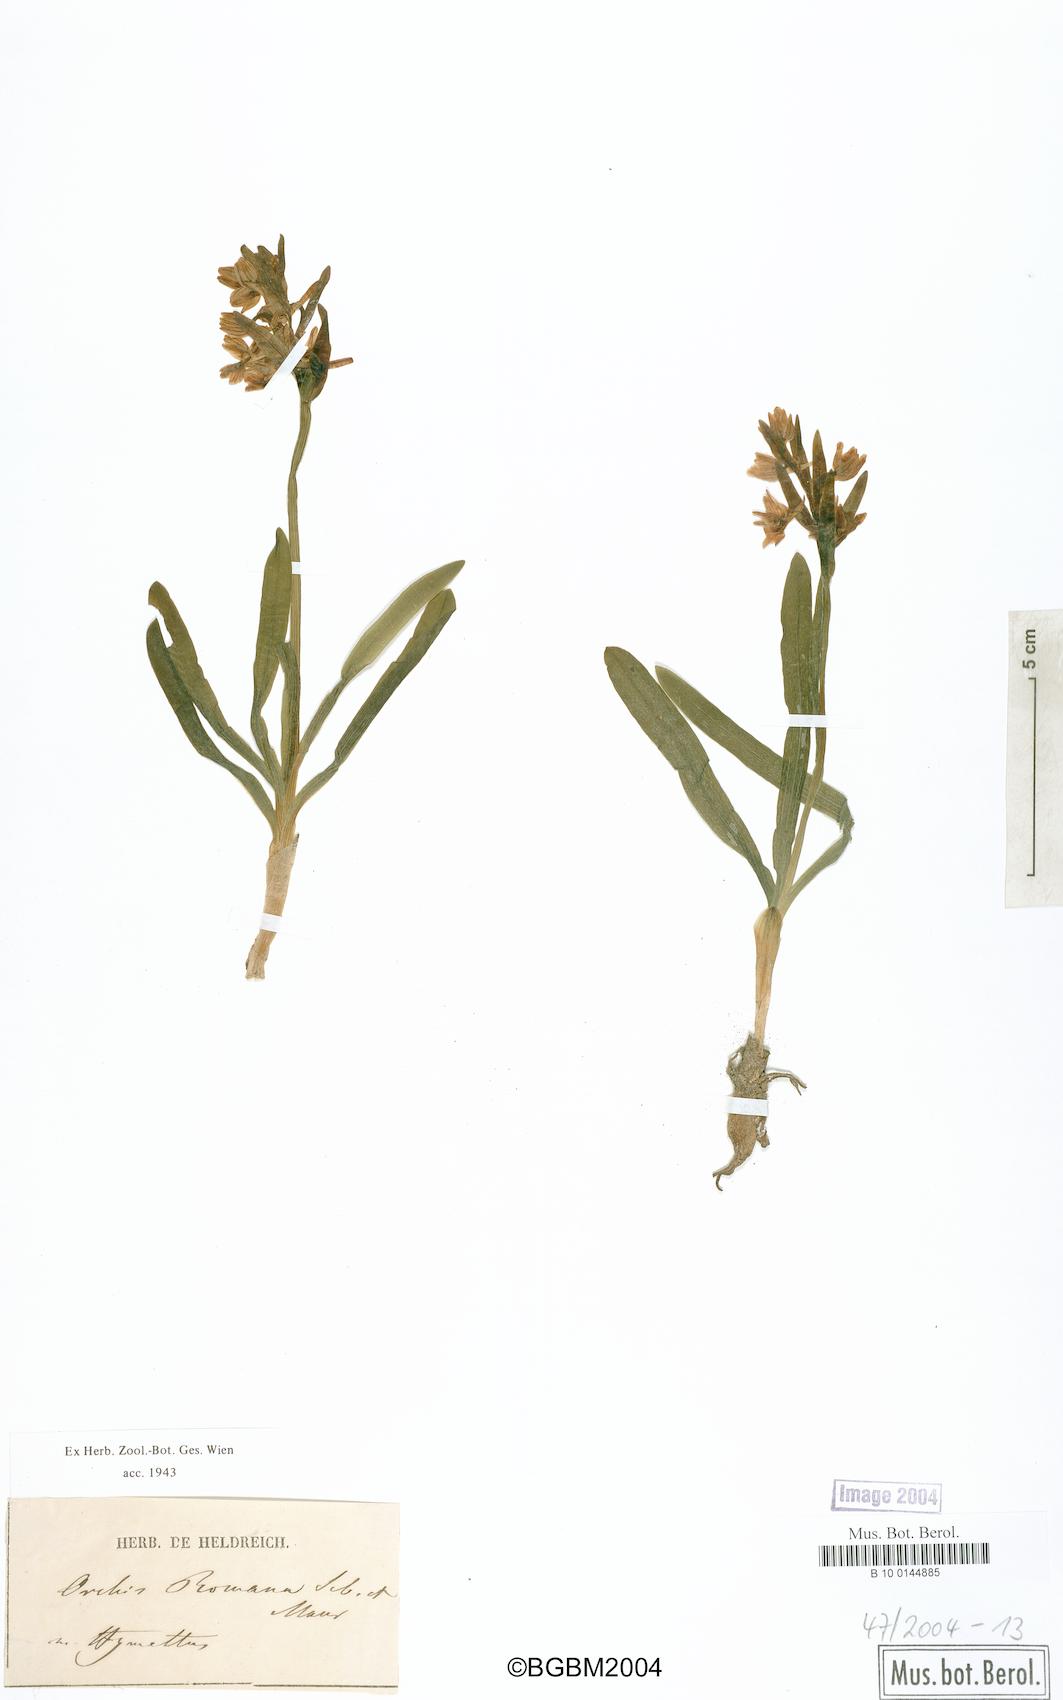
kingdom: Plantae
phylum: Tracheophyta
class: Liliopsida
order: Asparagales
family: Orchidaceae
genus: Orchis
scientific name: Orchis romana
